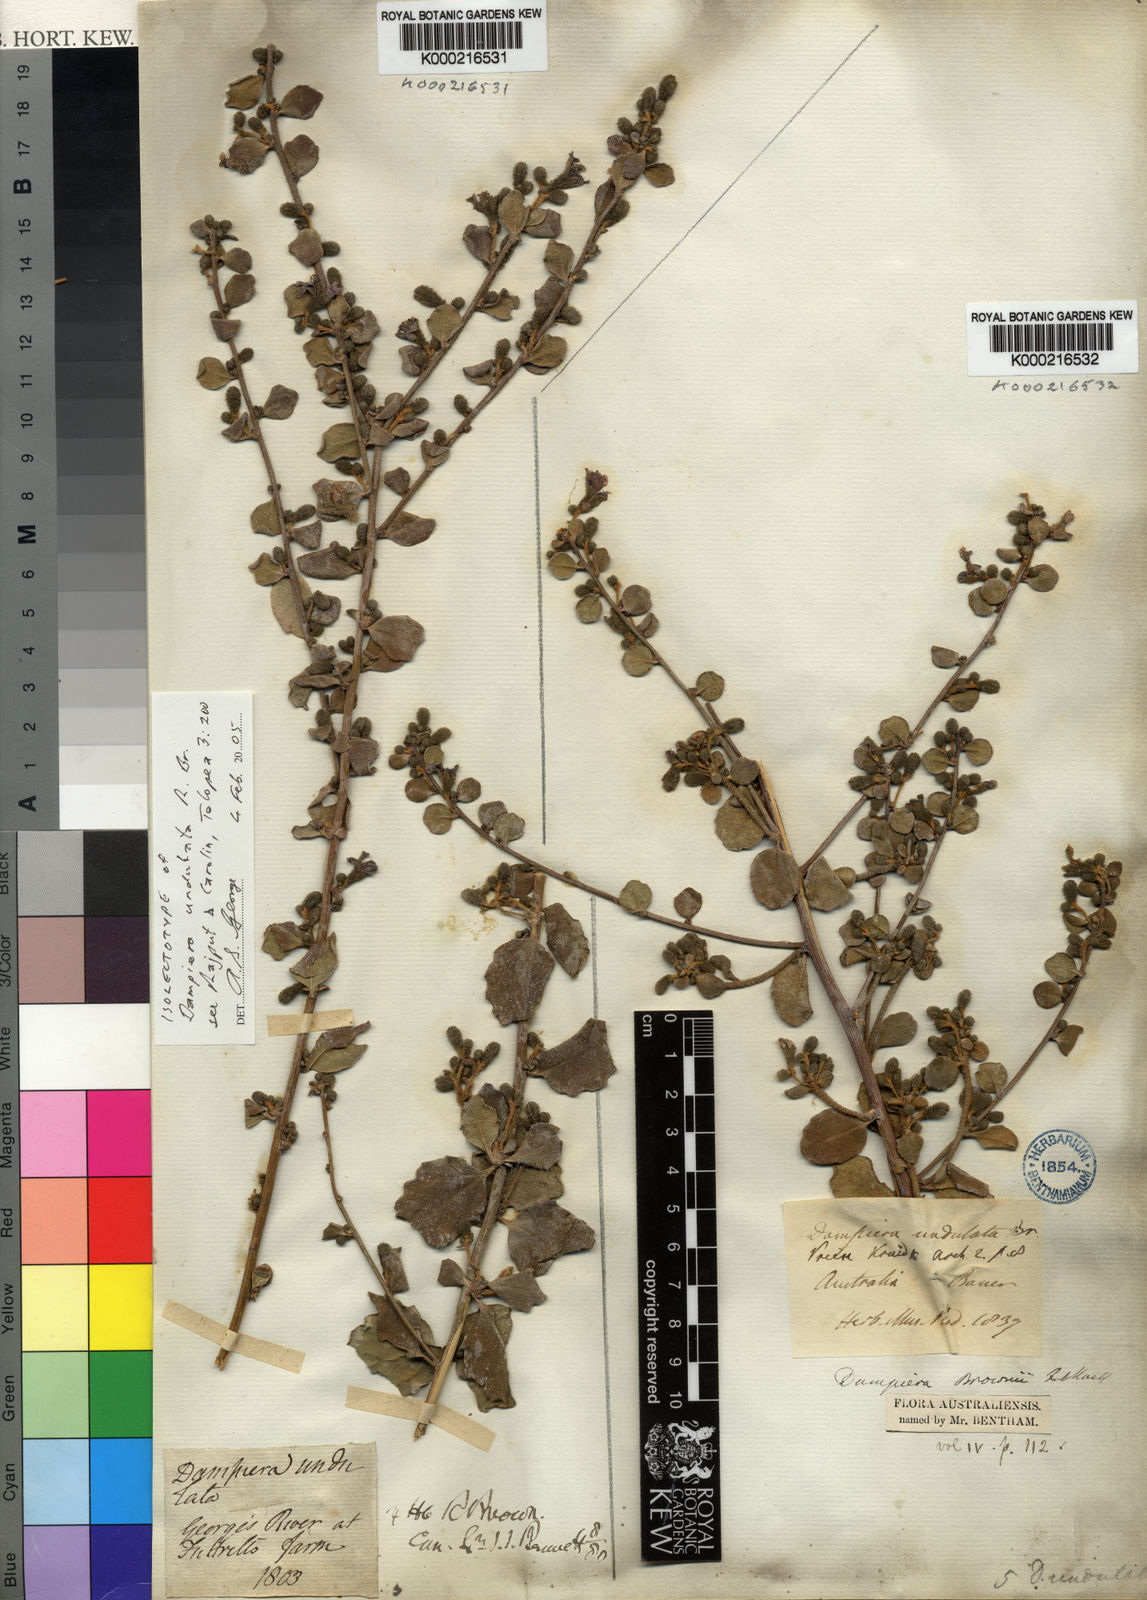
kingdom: Plantae
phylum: Tracheophyta
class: Magnoliopsida
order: Asterales
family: Goodeniaceae
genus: Dampiera
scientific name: Dampiera purpurea
